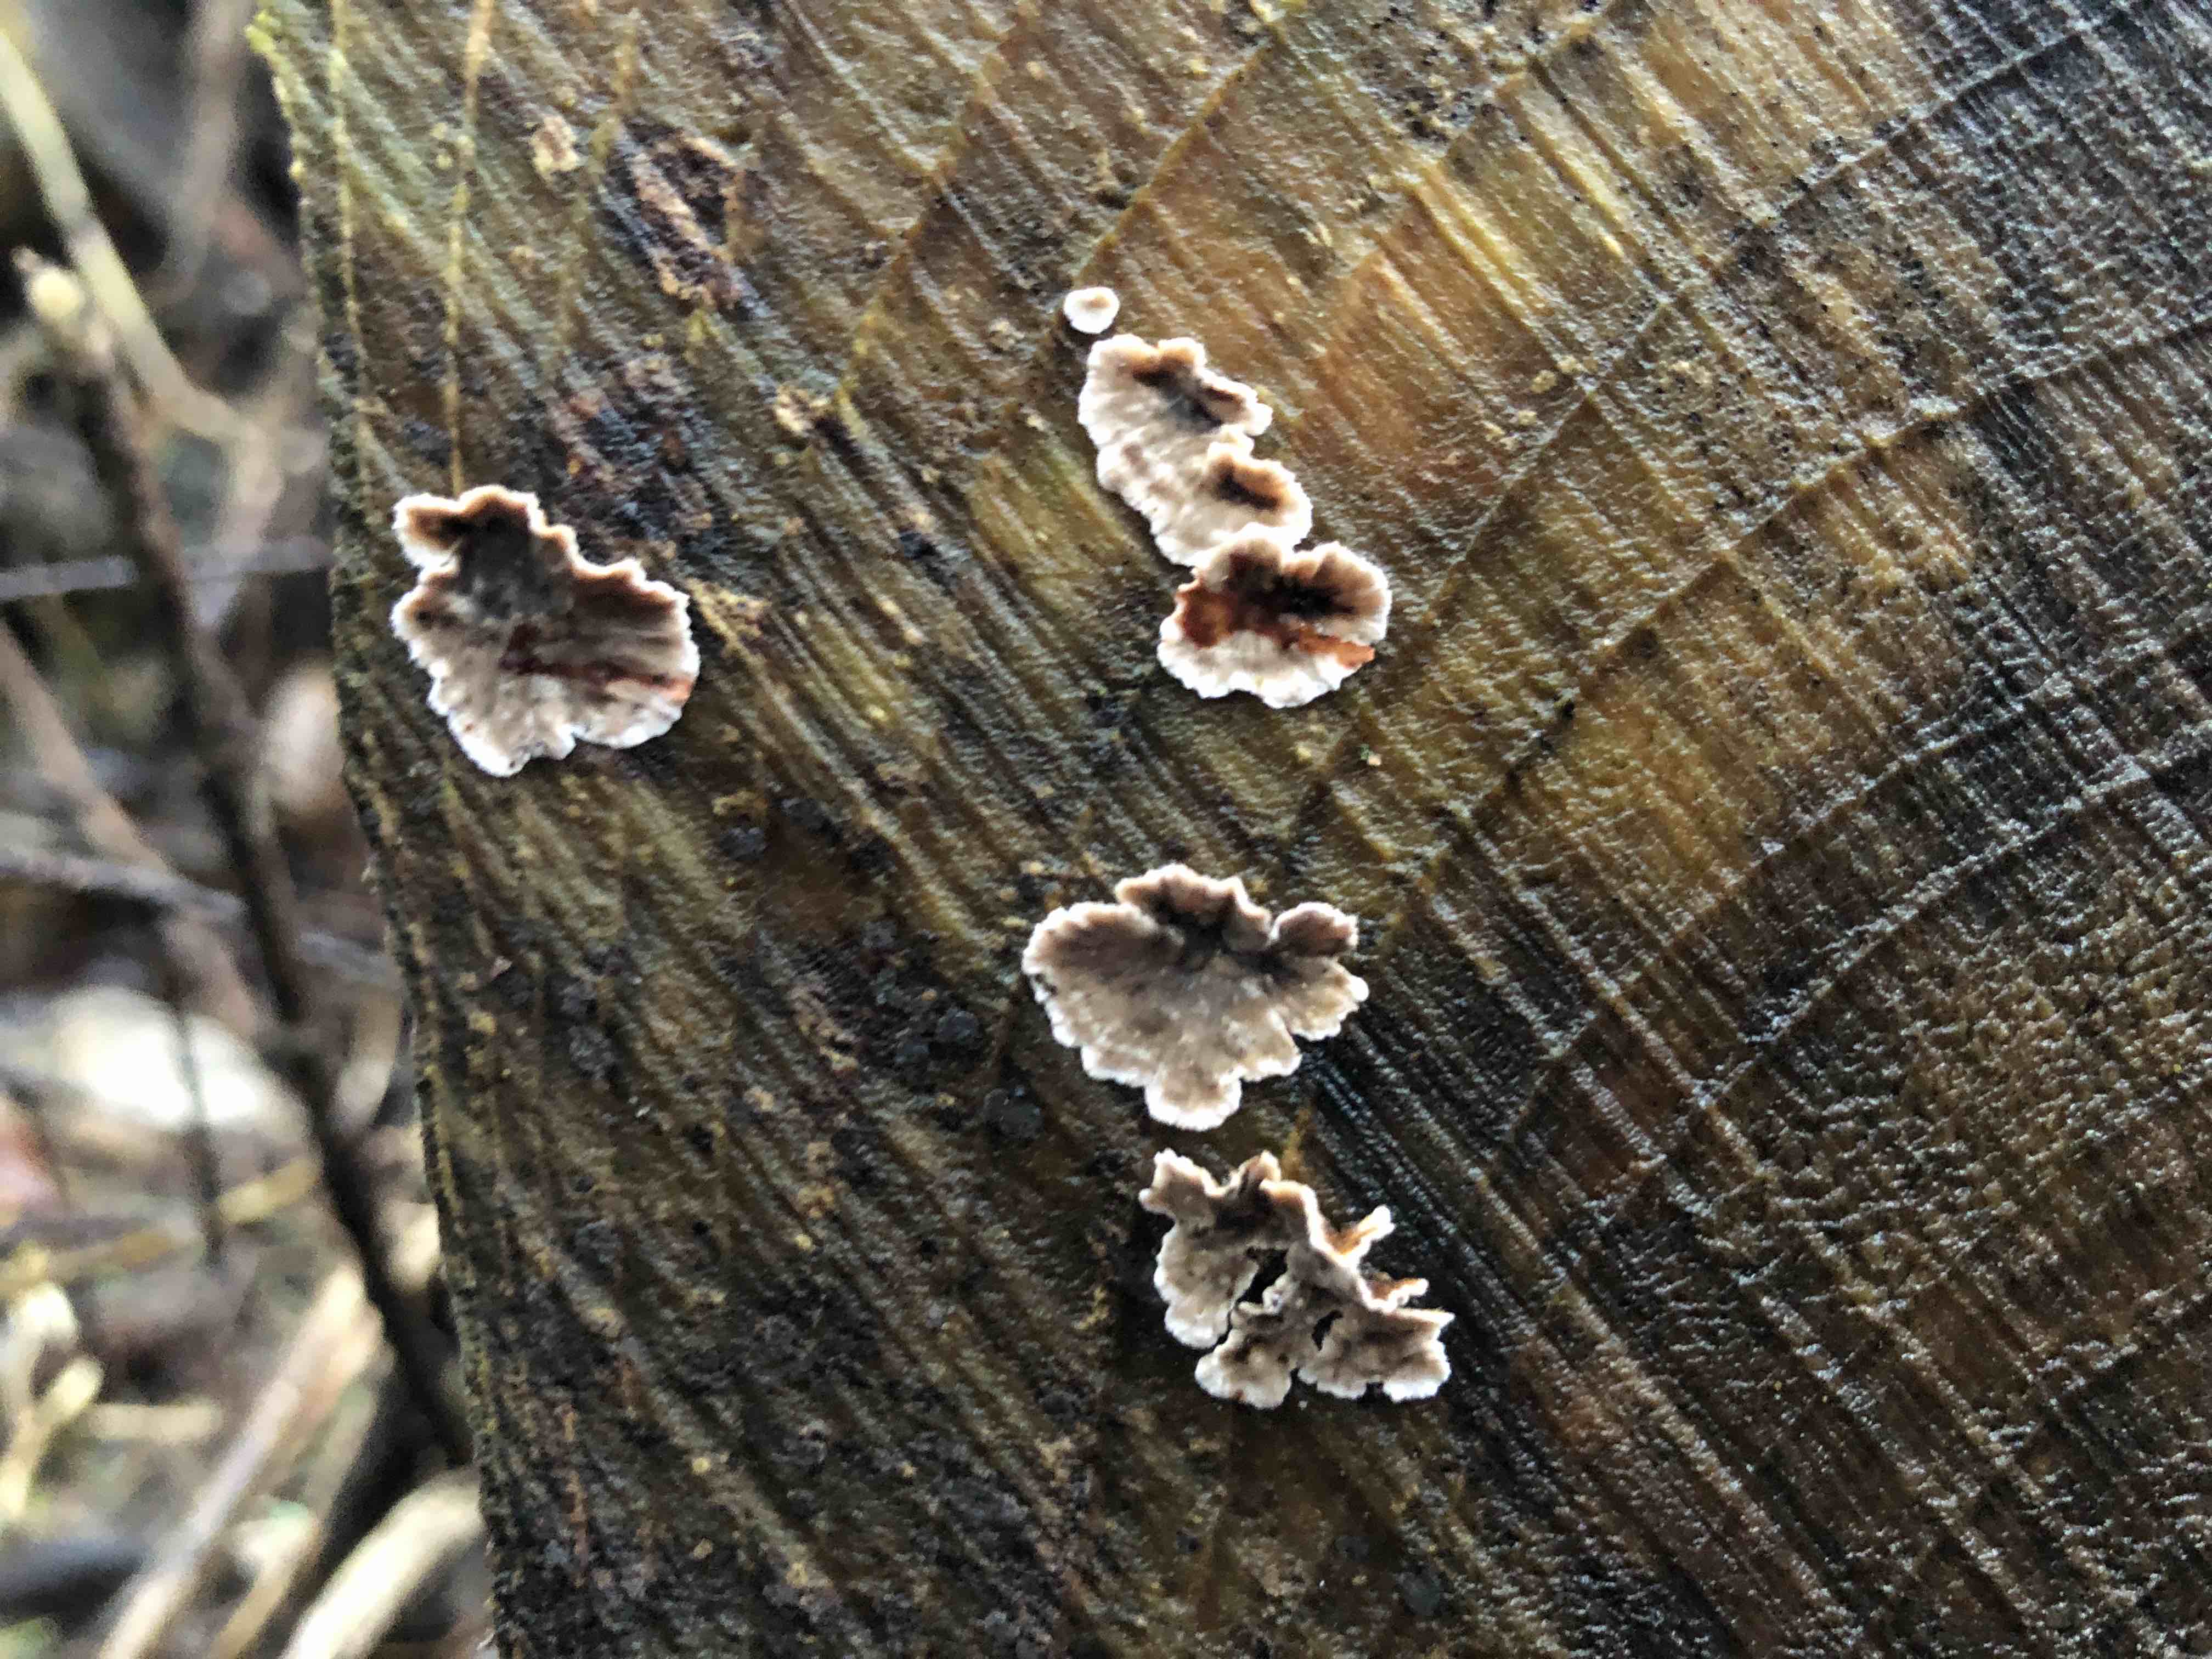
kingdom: Fungi
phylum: Basidiomycota
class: Agaricomycetes
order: Russulales
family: Stereaceae
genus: Stereum
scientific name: Stereum sanguinolentum
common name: blødende lædersvamp
